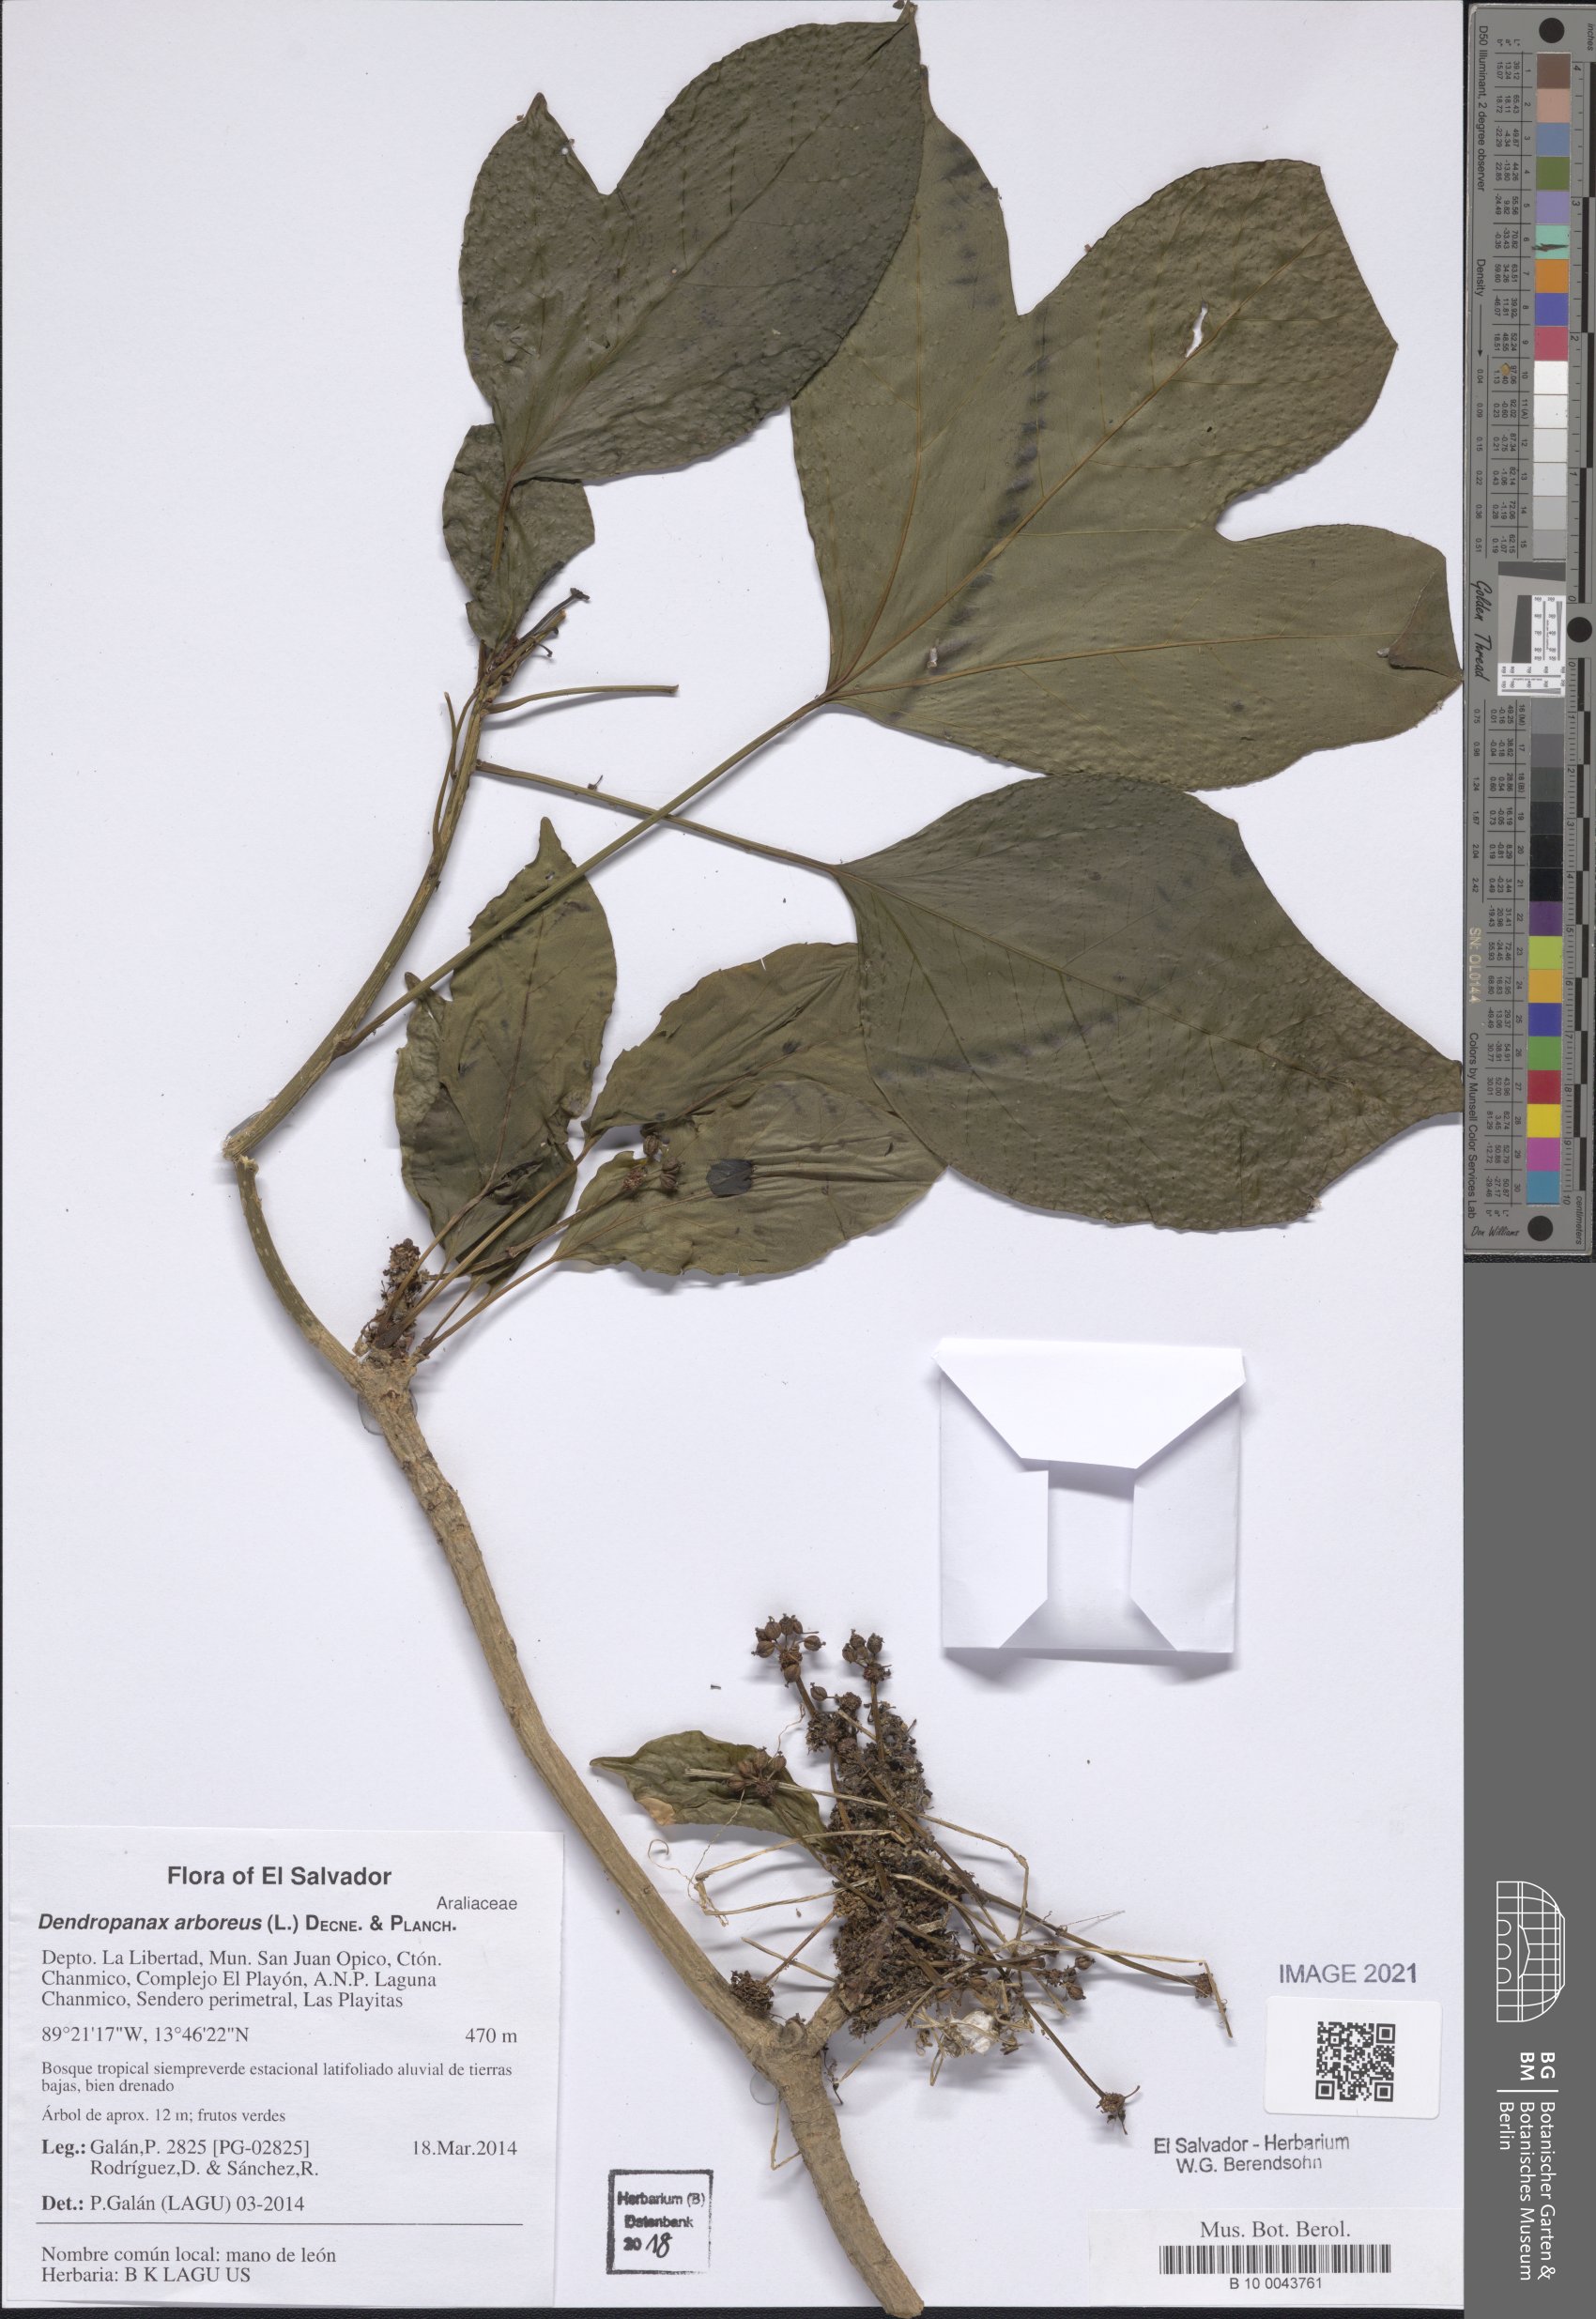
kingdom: Plantae
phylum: Tracheophyta
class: Magnoliopsida
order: Apiales
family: Araliaceae
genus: Dendropanax
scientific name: Dendropanax arboreus
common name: Potato-wood
